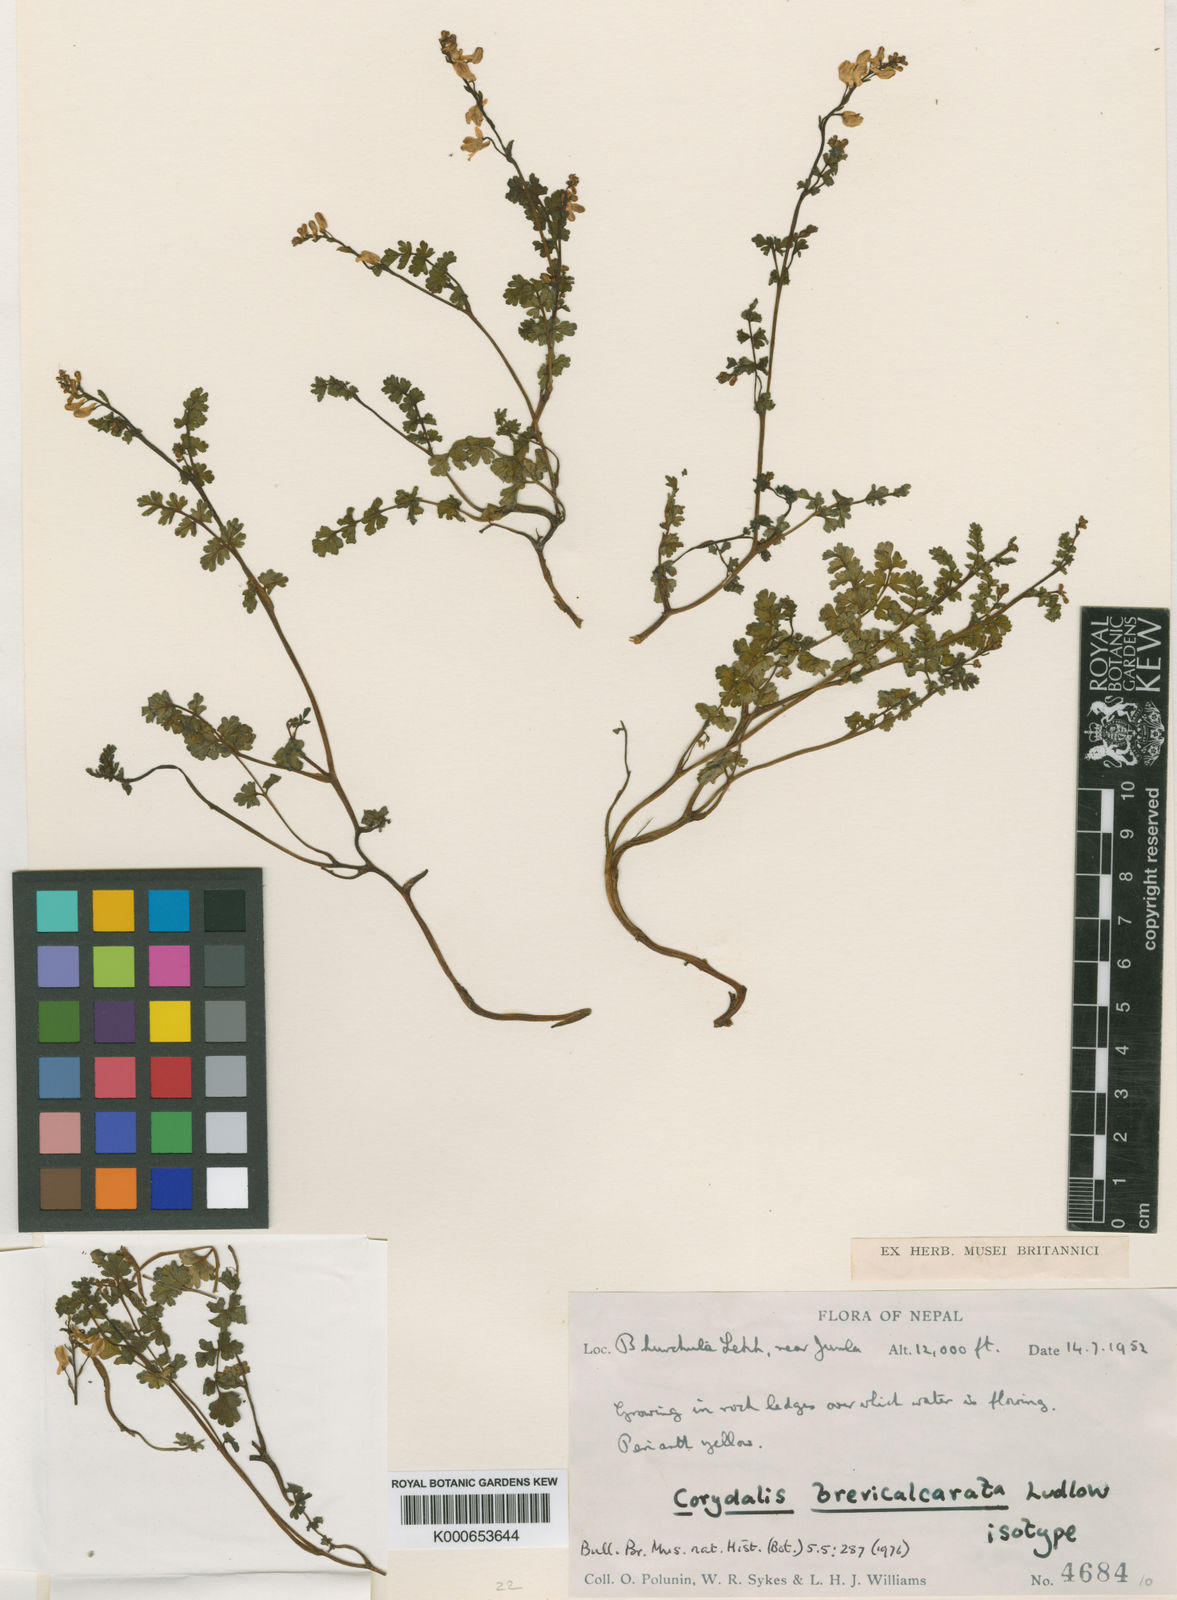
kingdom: Plantae
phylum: Tracheophyta
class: Magnoliopsida
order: Ranunculales
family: Papaveraceae
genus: Corydalis
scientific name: Corydalis lathyroides
